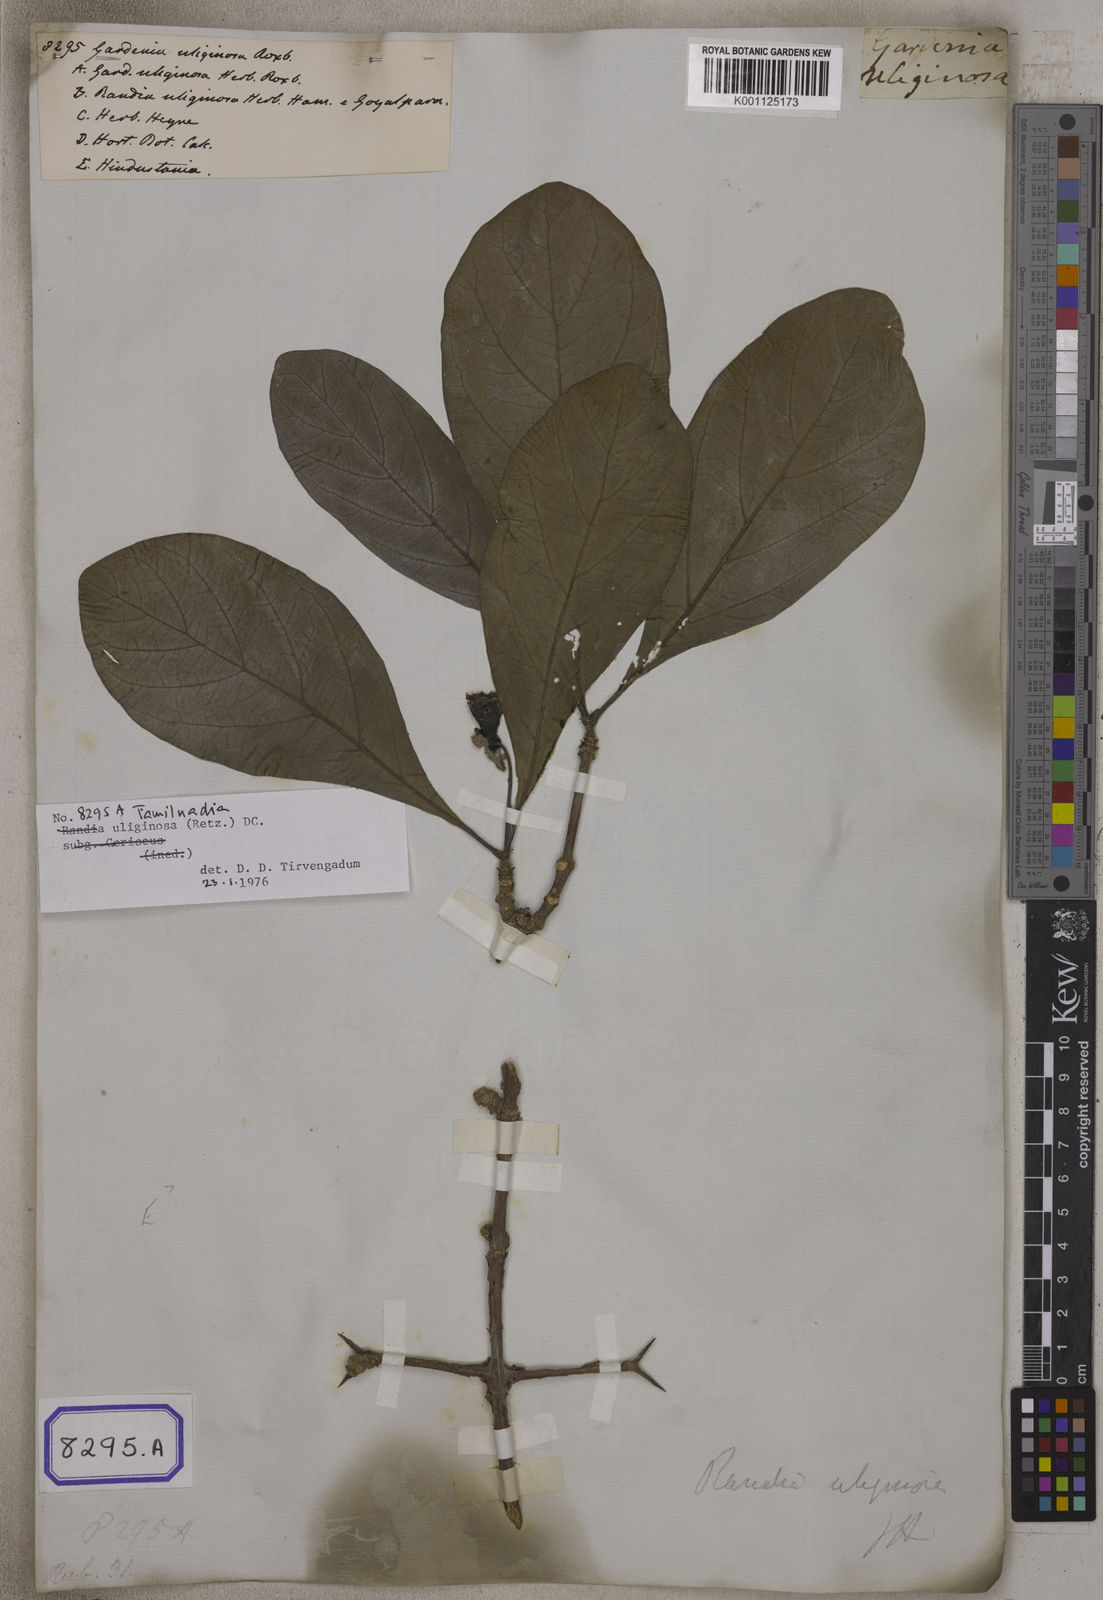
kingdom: Plantae
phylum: Tracheophyta
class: Magnoliopsida
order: Gentianales
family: Rubiaceae
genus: Gardenia
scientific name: Gardenia
